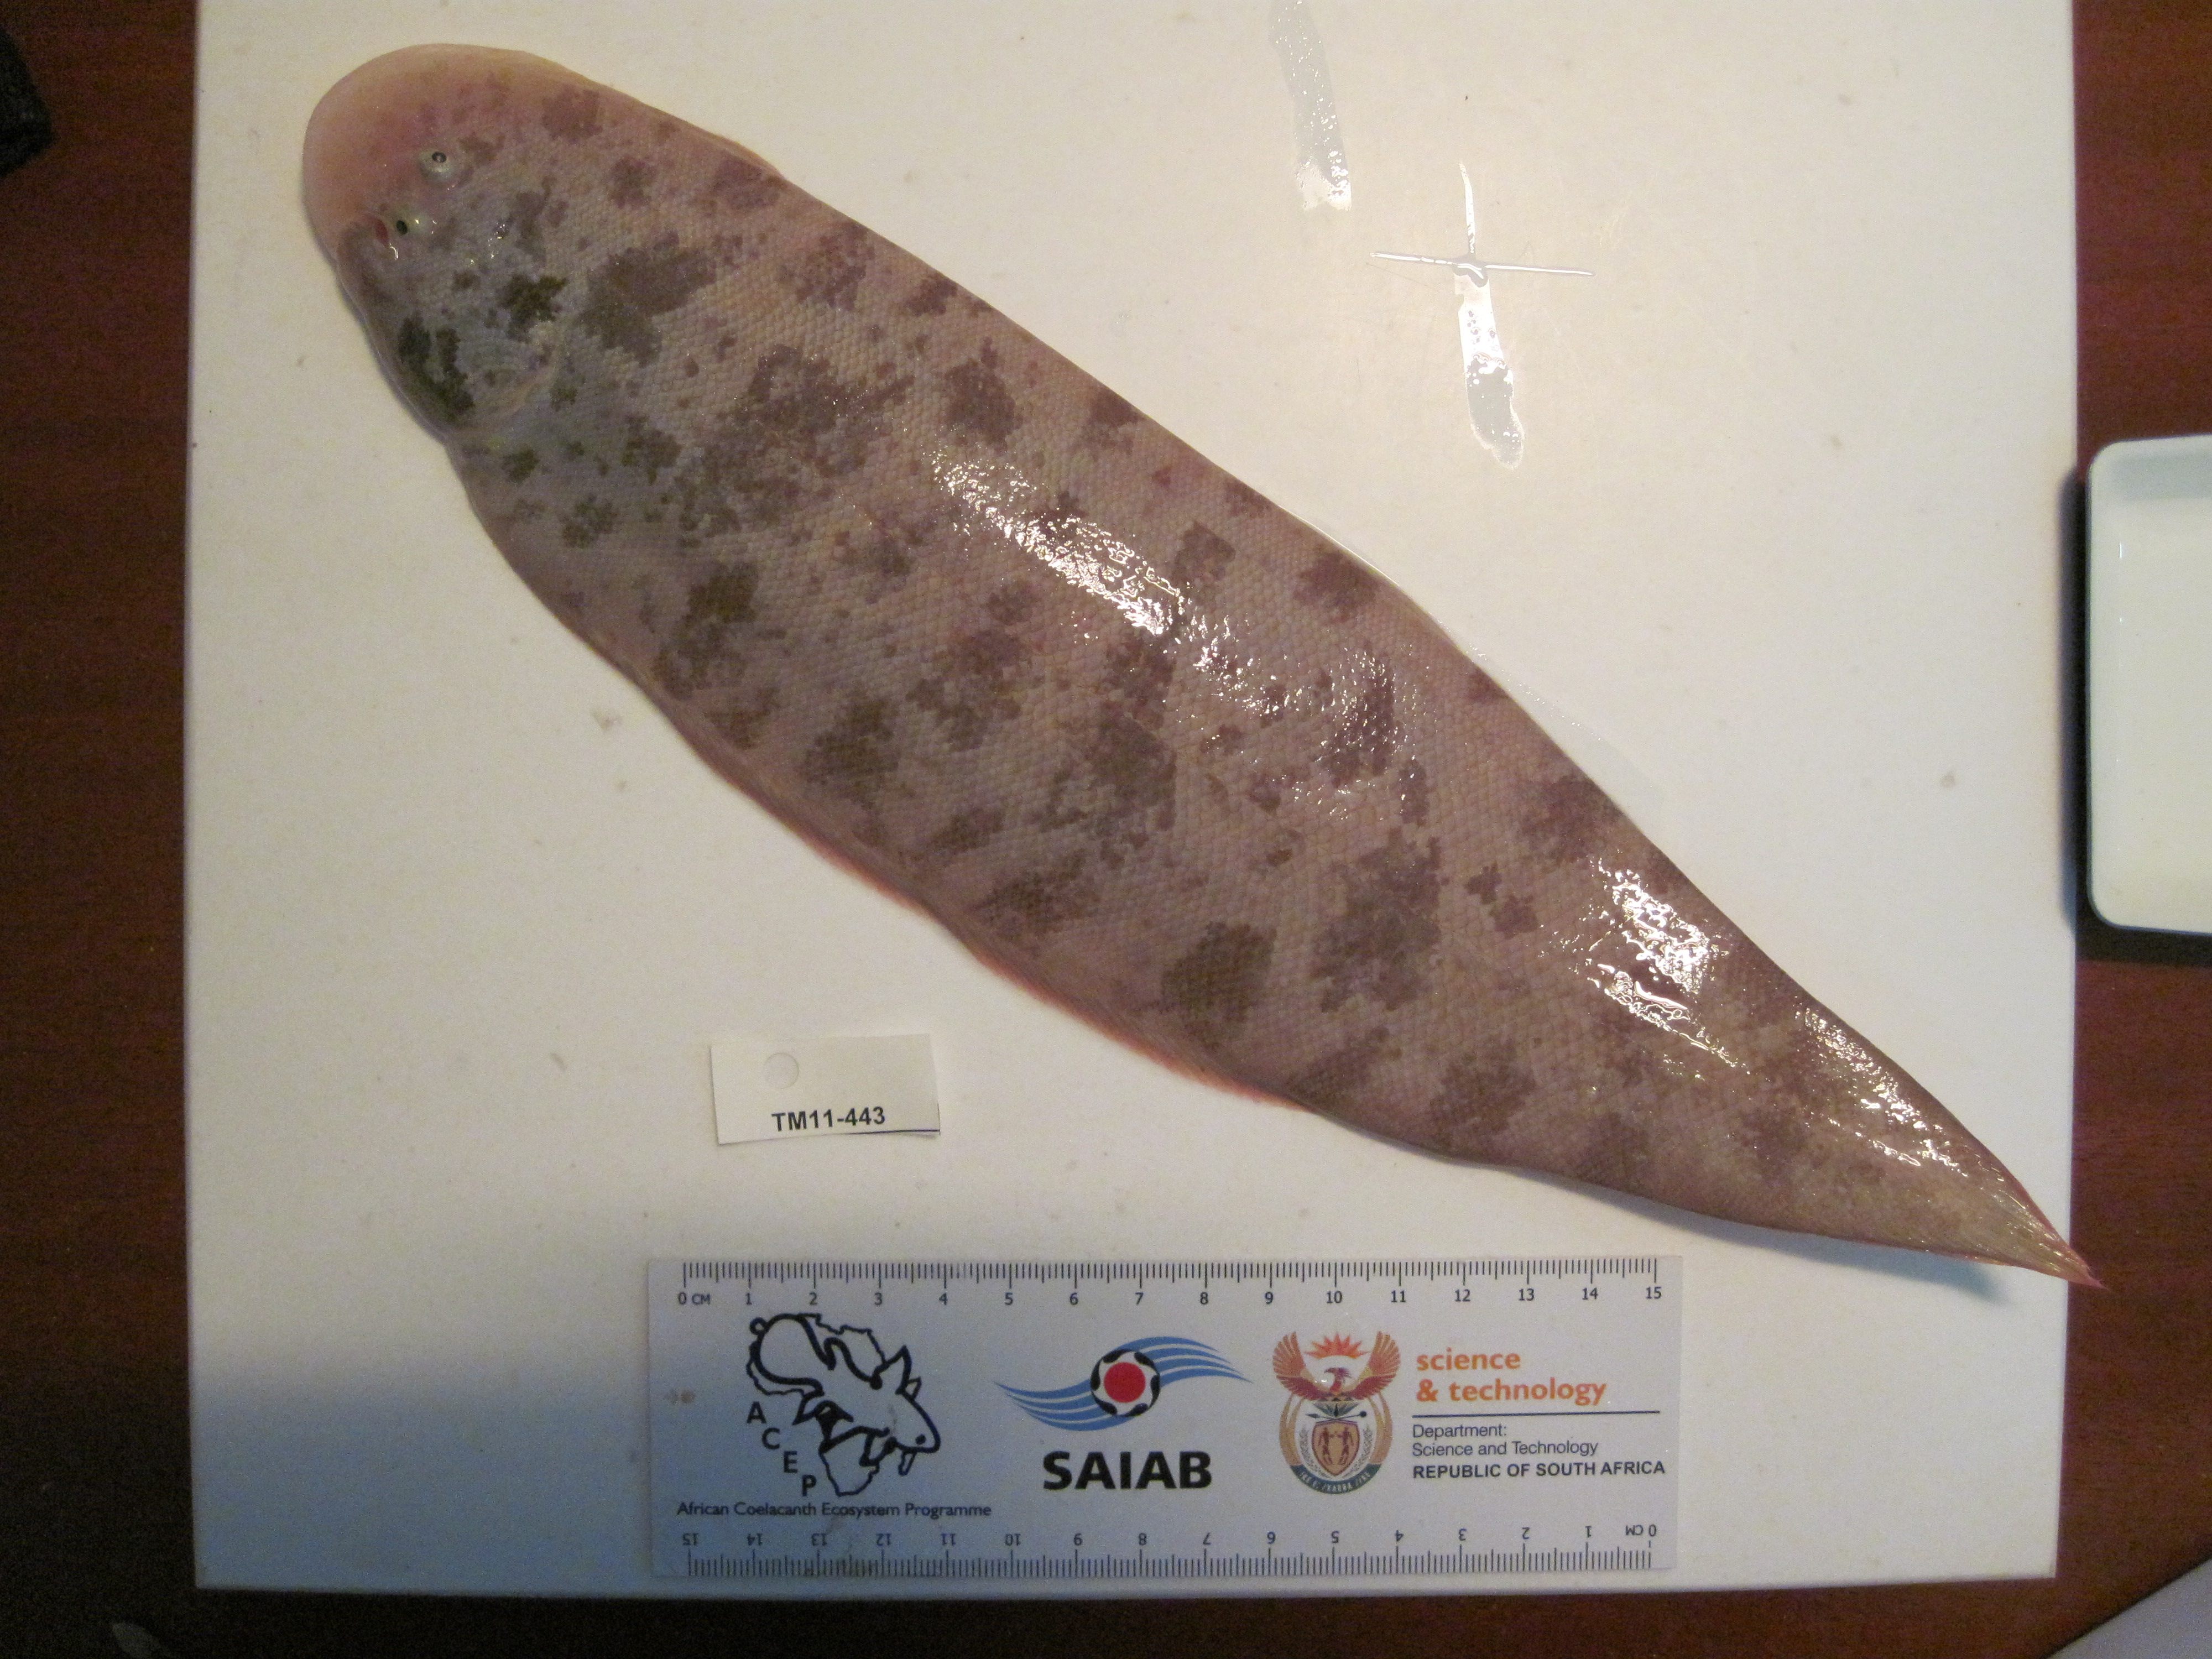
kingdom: Animalia
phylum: Chordata
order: Pleuronectiformes
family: Cynoglossidae
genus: Cynoglossus
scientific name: Cynoglossus durbanensis
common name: Durban tonguesole
